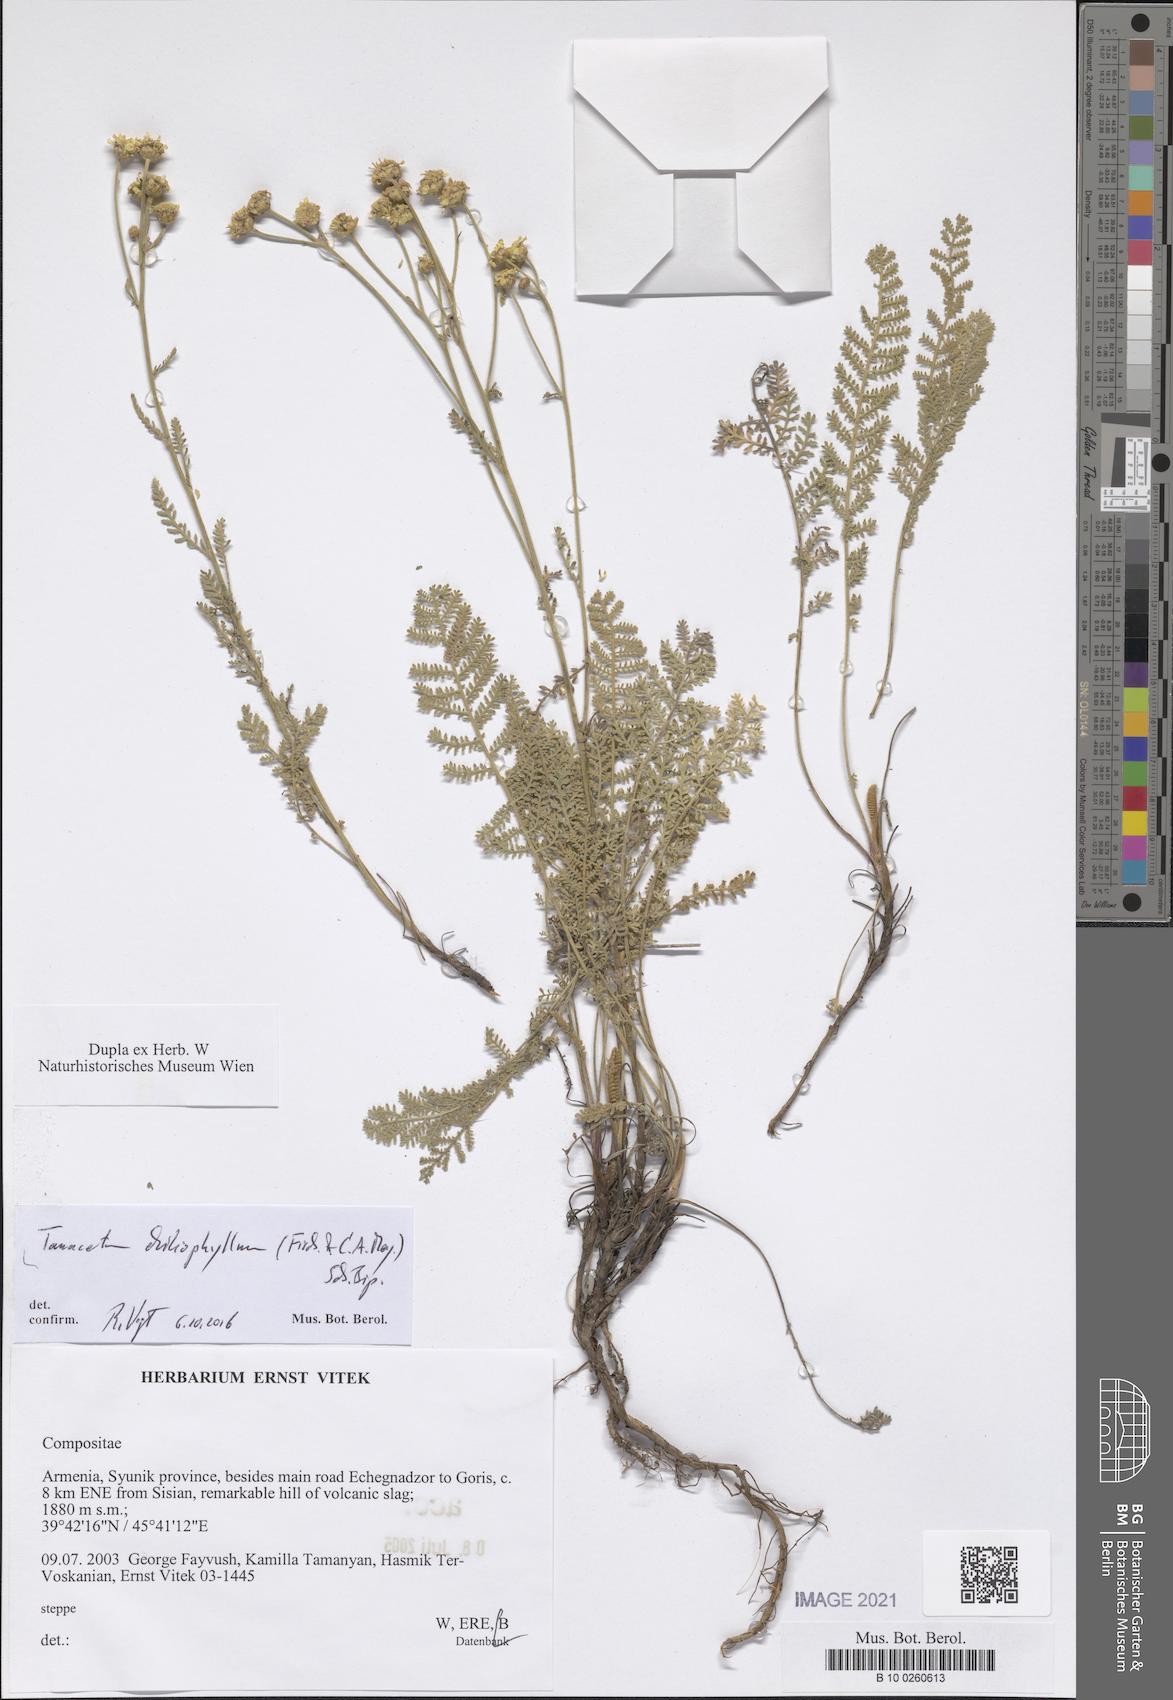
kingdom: Plantae
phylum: Tracheophyta
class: Magnoliopsida
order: Asterales
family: Asteraceae
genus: Tanacetum
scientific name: Tanacetum aureum
